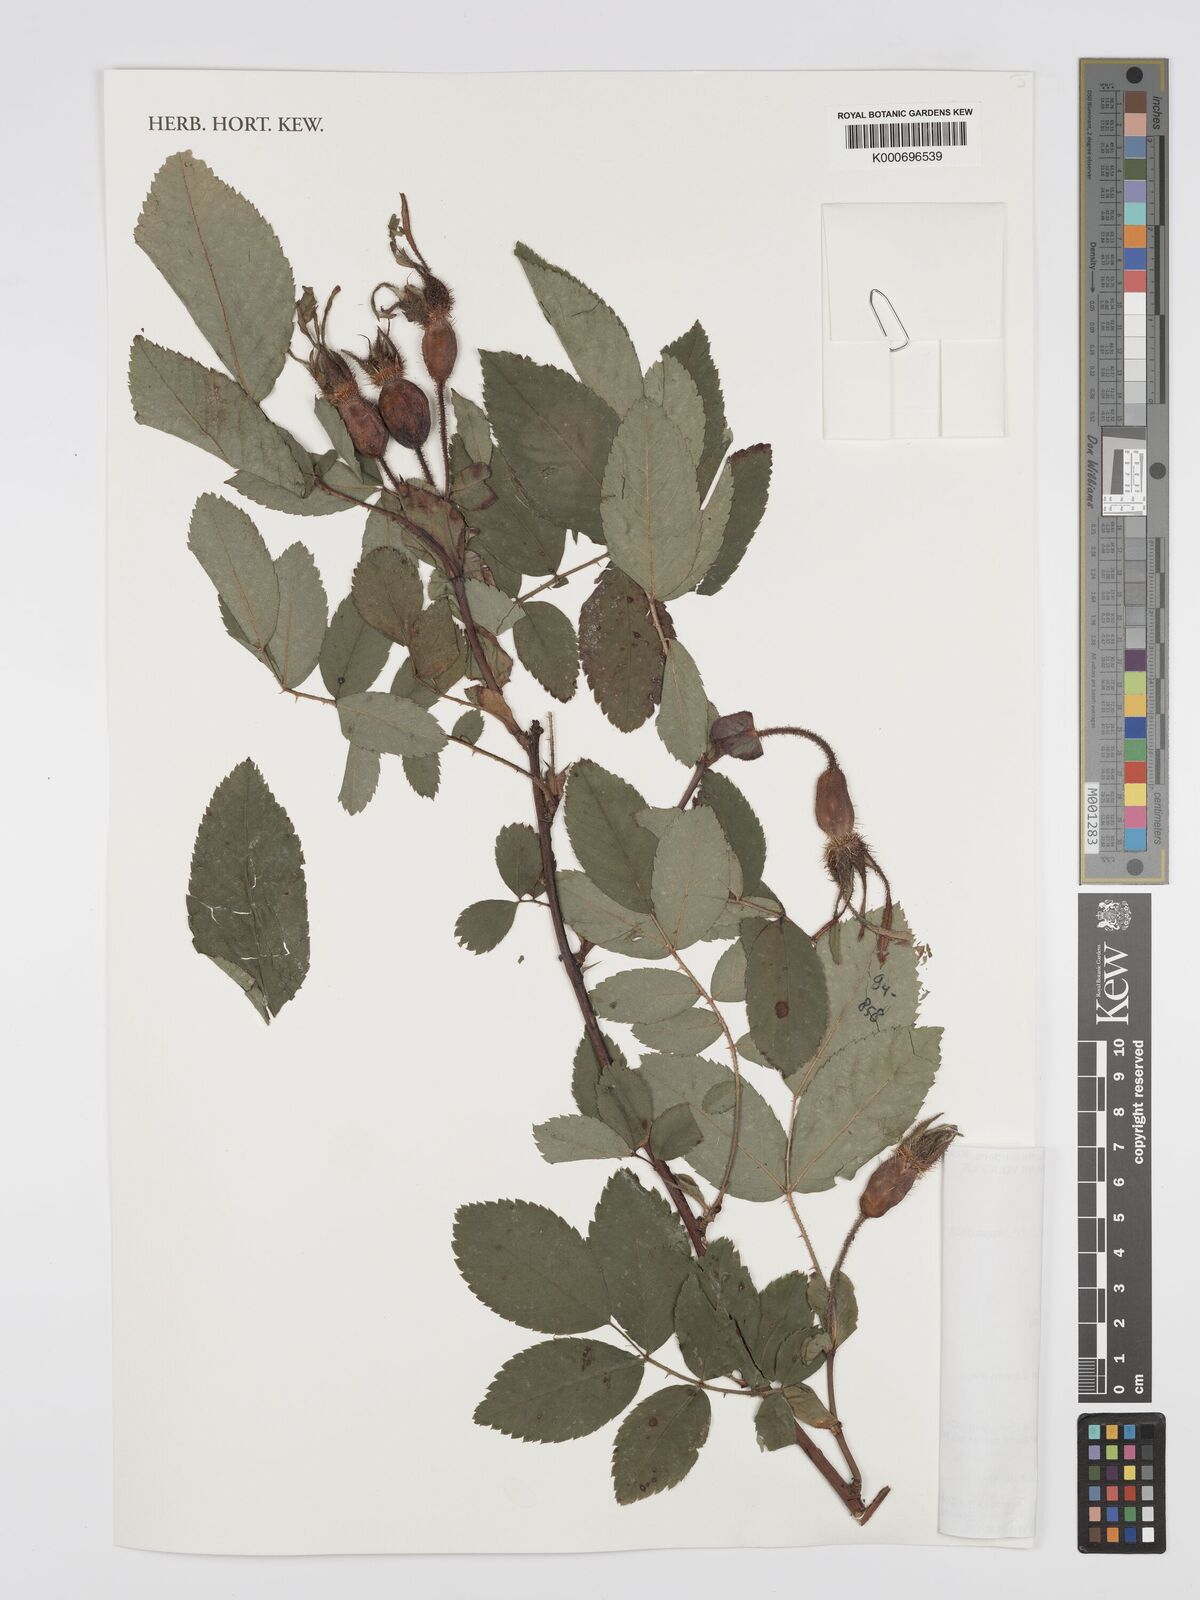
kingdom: Plantae
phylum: Tracheophyta
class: Magnoliopsida
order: Rosales
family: Rosaceae
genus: Rosa
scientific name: Rosa acicularis
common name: Prickly rose
